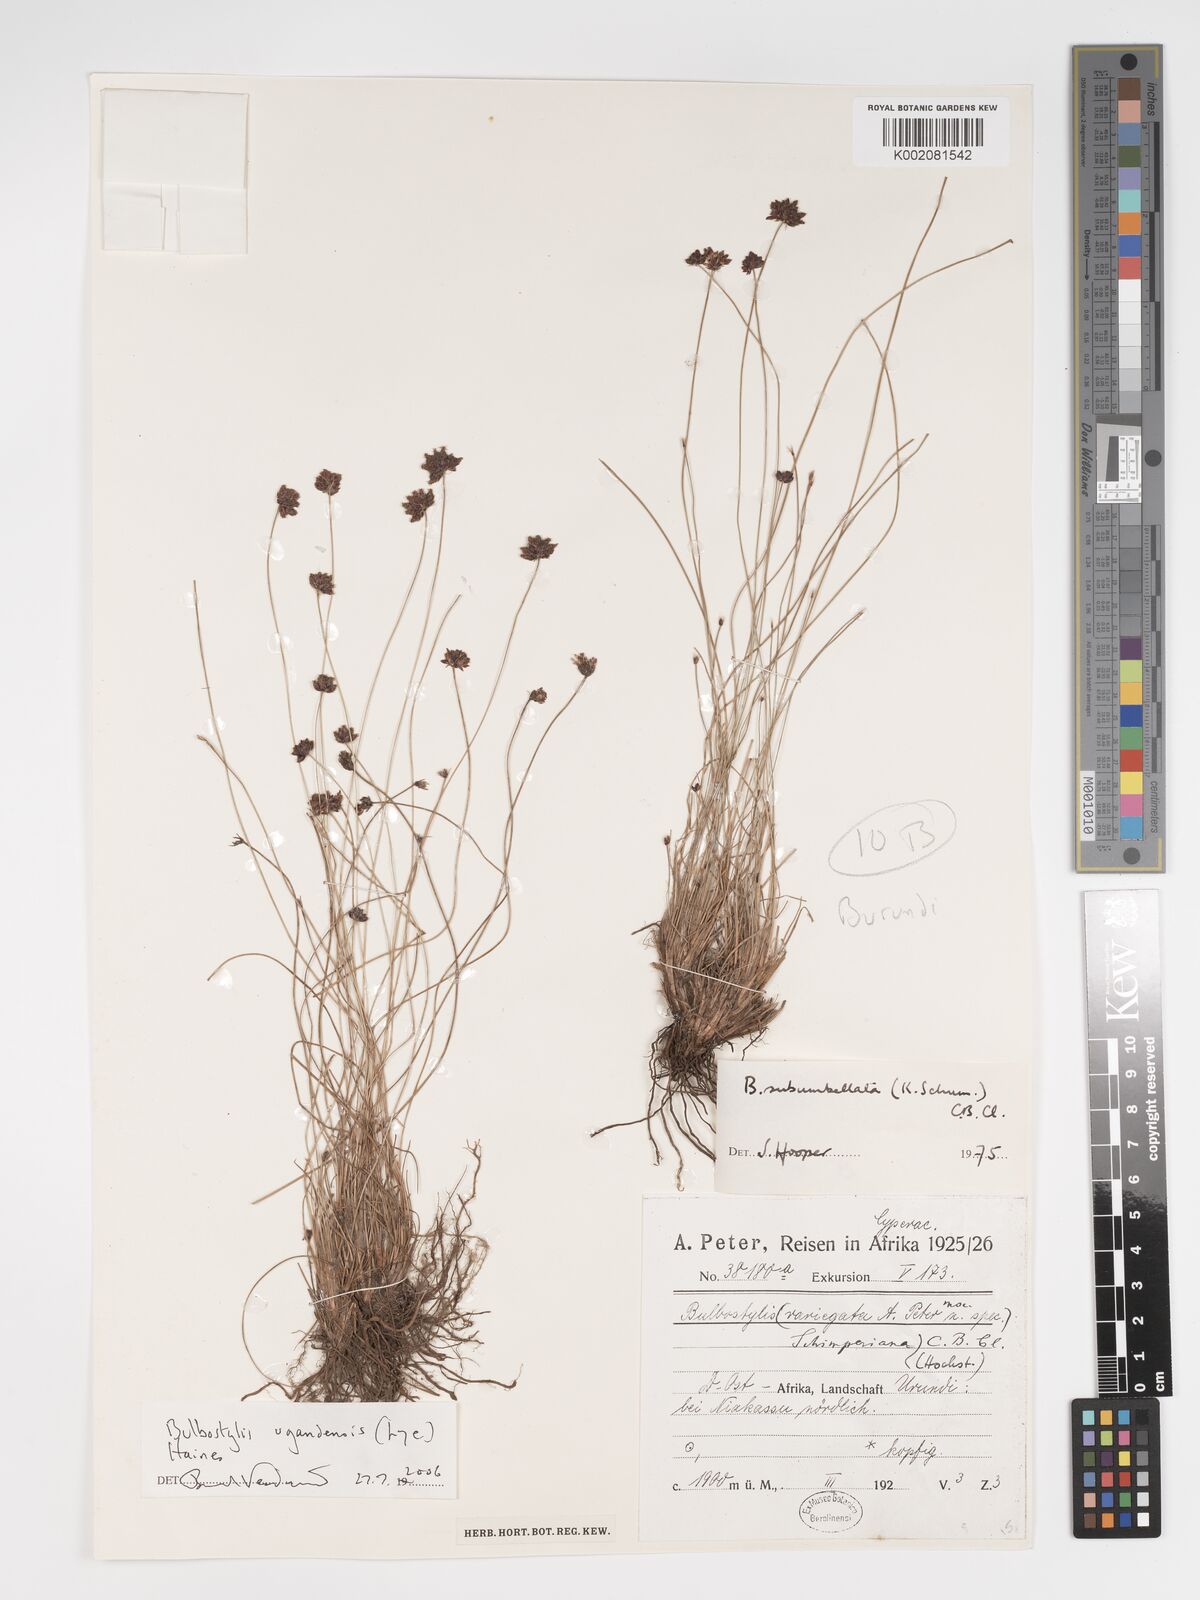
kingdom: Plantae
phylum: Tracheophyta
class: Liliopsida
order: Poales
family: Cyperaceae
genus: Bulbostylis
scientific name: Bulbostylis hensii
